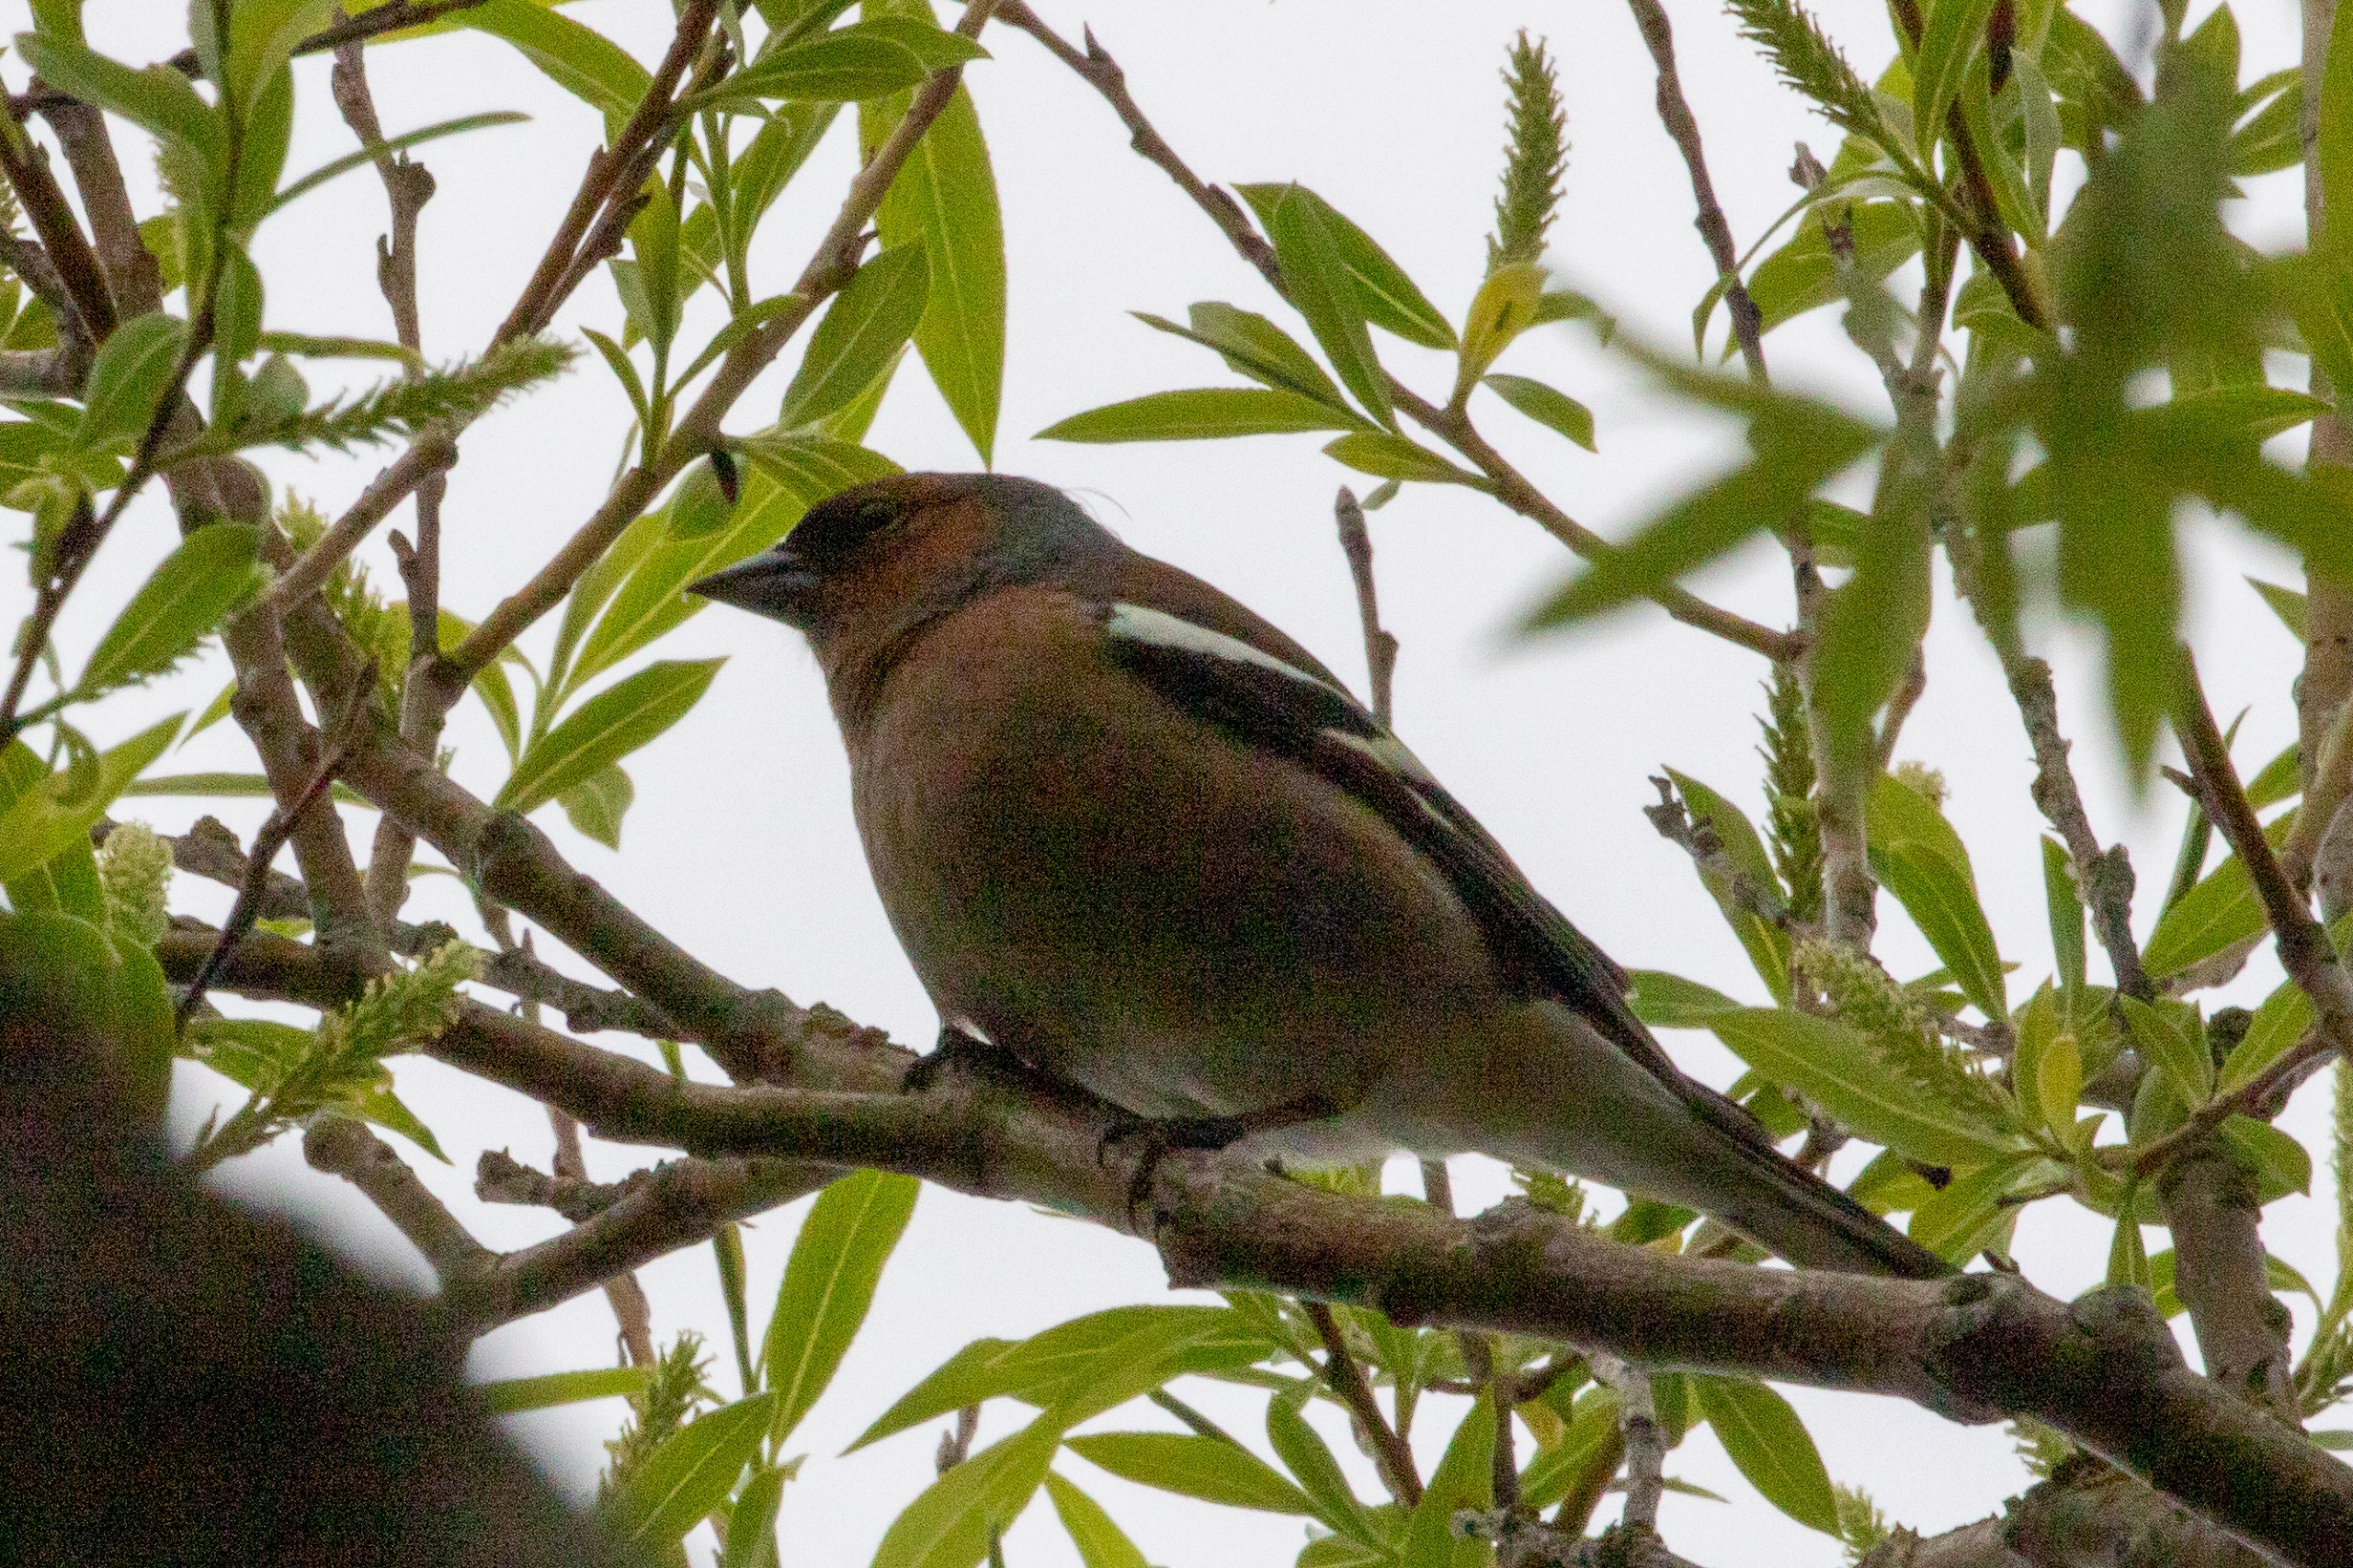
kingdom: Animalia
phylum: Chordata
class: Aves
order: Passeriformes
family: Fringillidae
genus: Fringilla
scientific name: Fringilla coelebs
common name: Bogfinke
